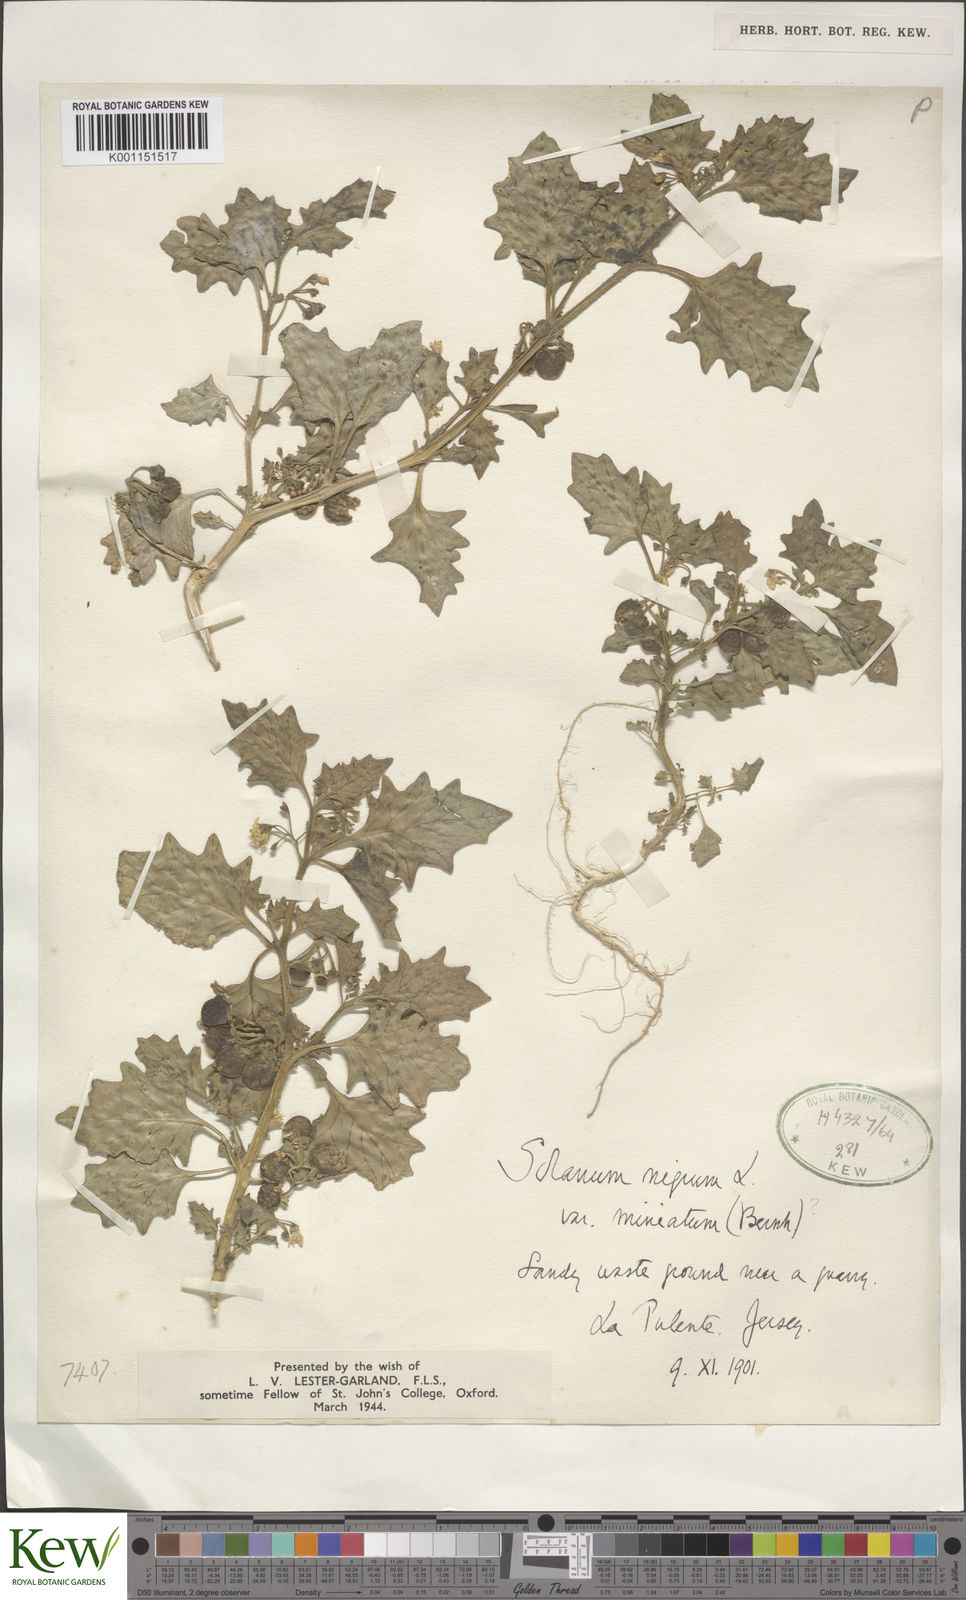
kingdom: Plantae
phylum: Tracheophyta
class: Magnoliopsida
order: Solanales
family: Solanaceae
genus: Solanum
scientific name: Solanum alatum
